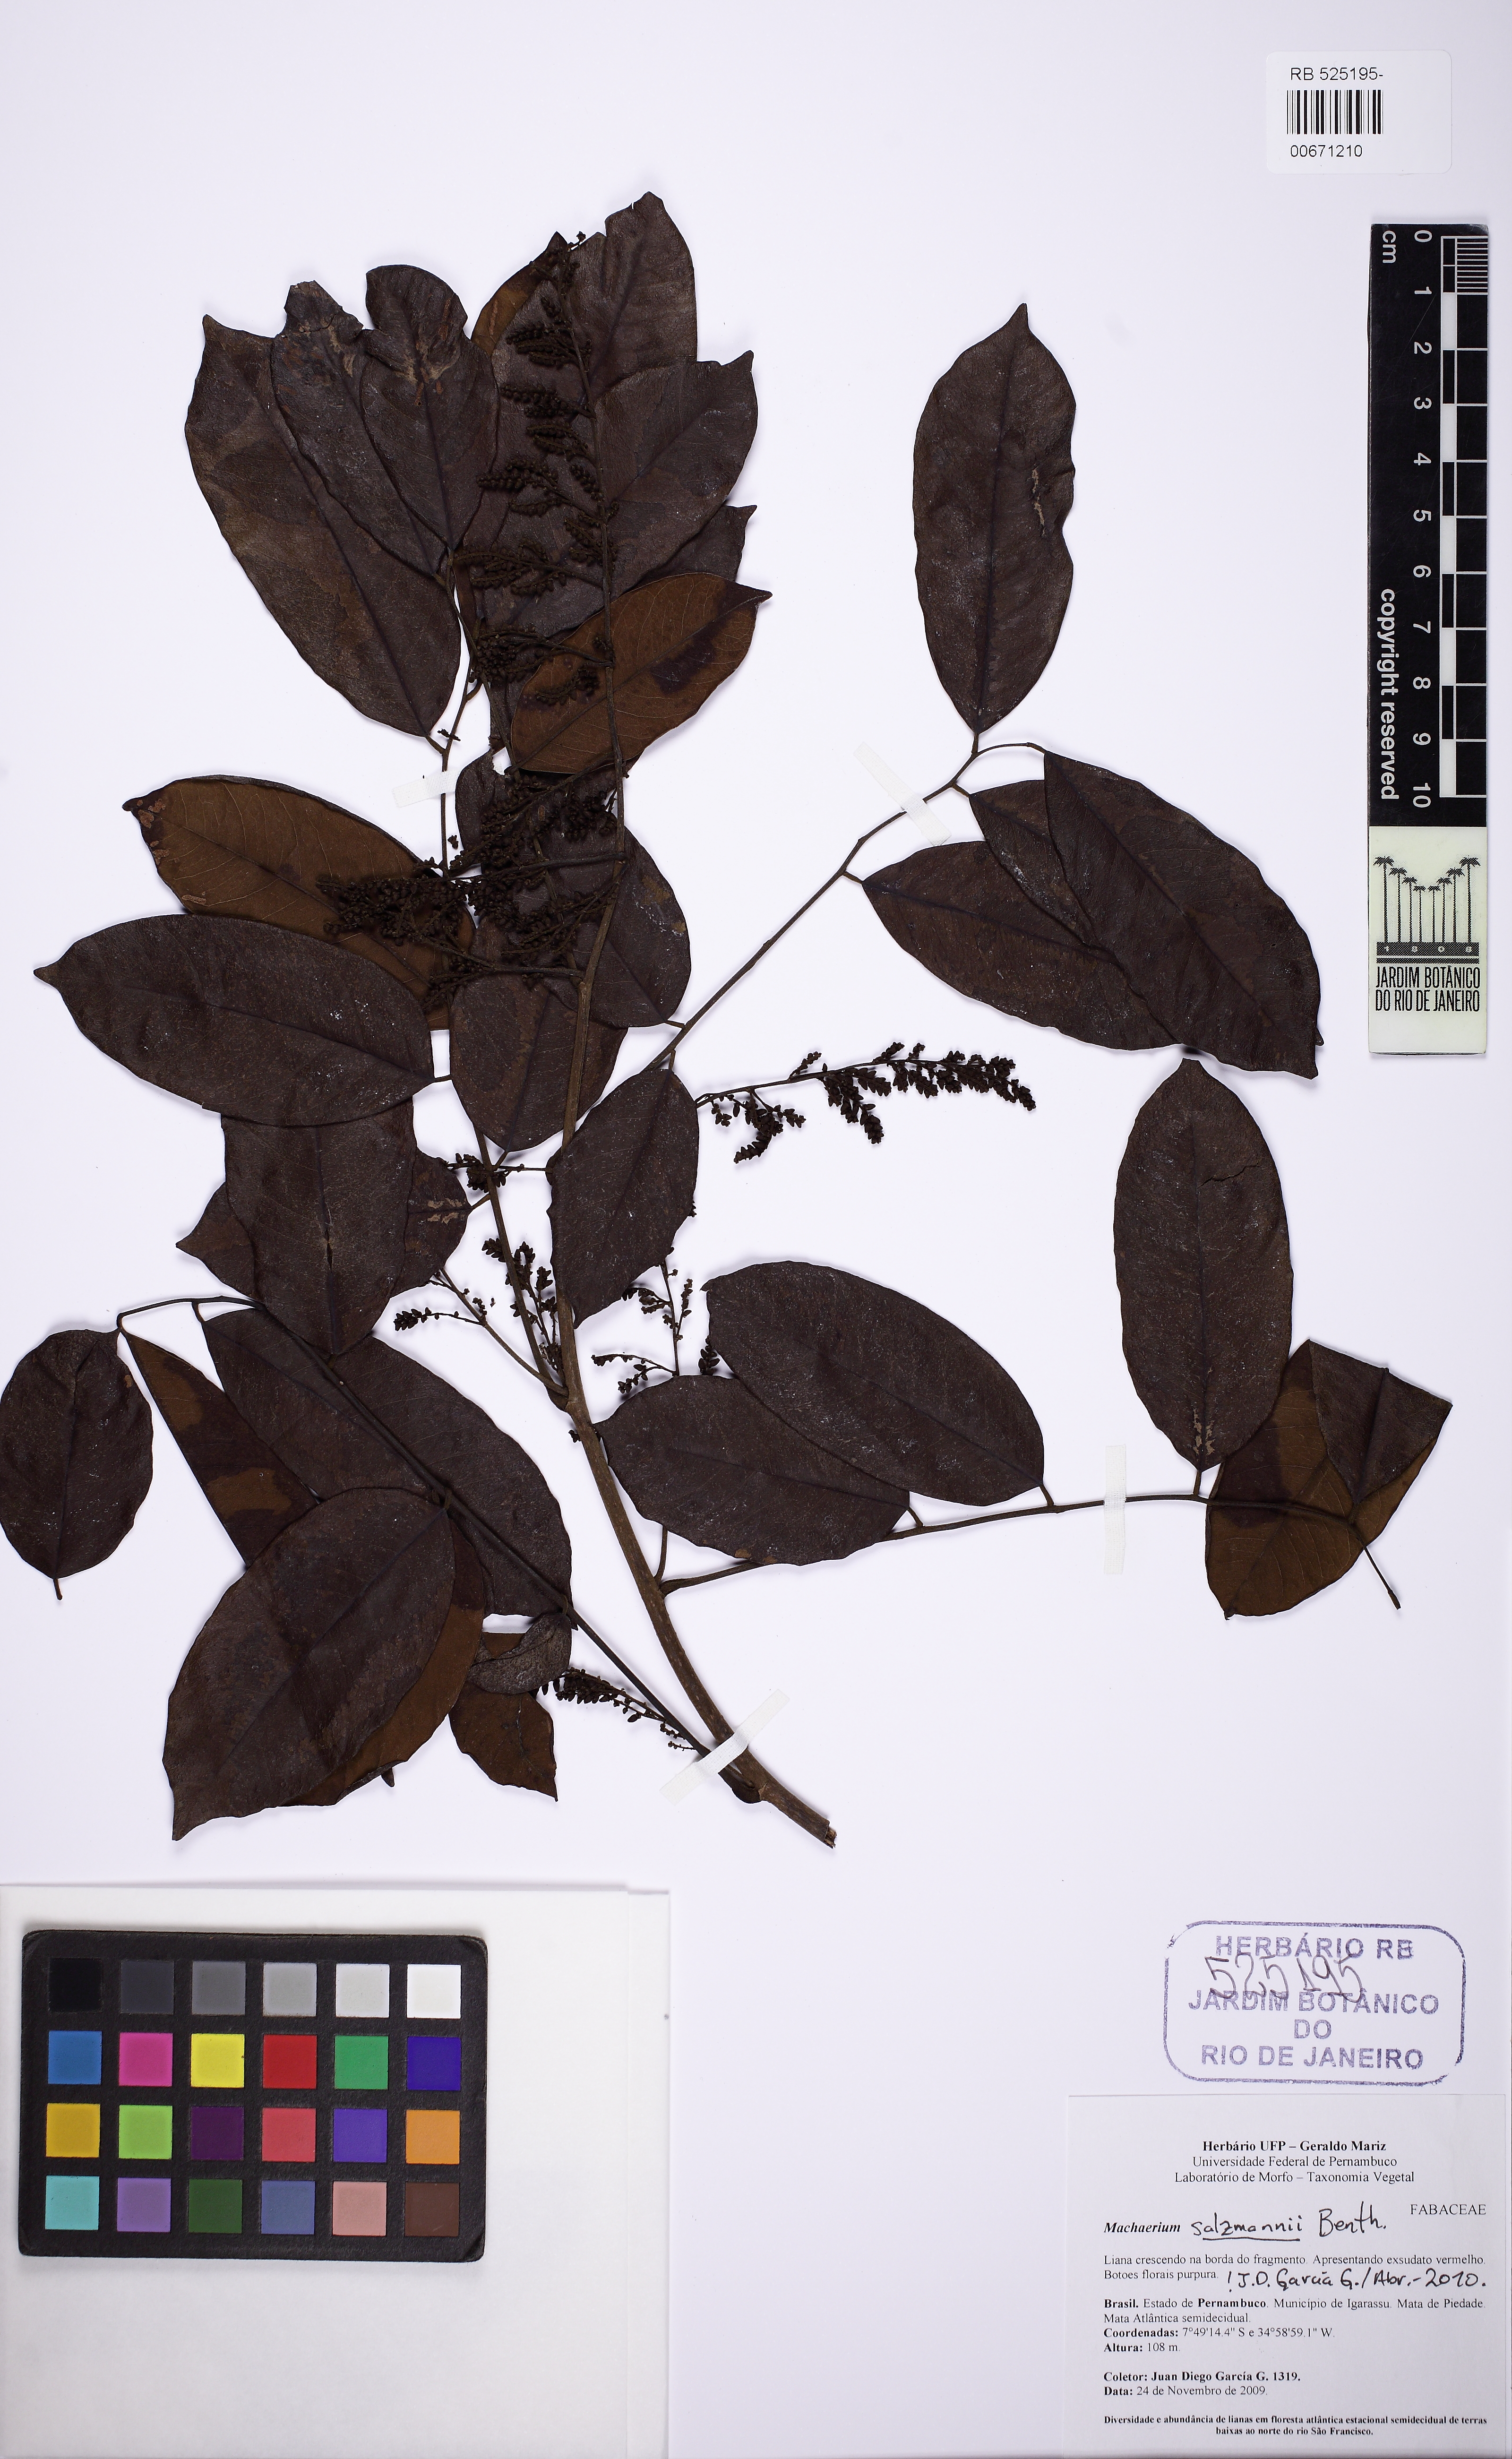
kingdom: Plantae
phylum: Tracheophyta
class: Magnoliopsida
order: Fabales
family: Fabaceae
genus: Machaerium
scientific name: Machaerium salzmannii
